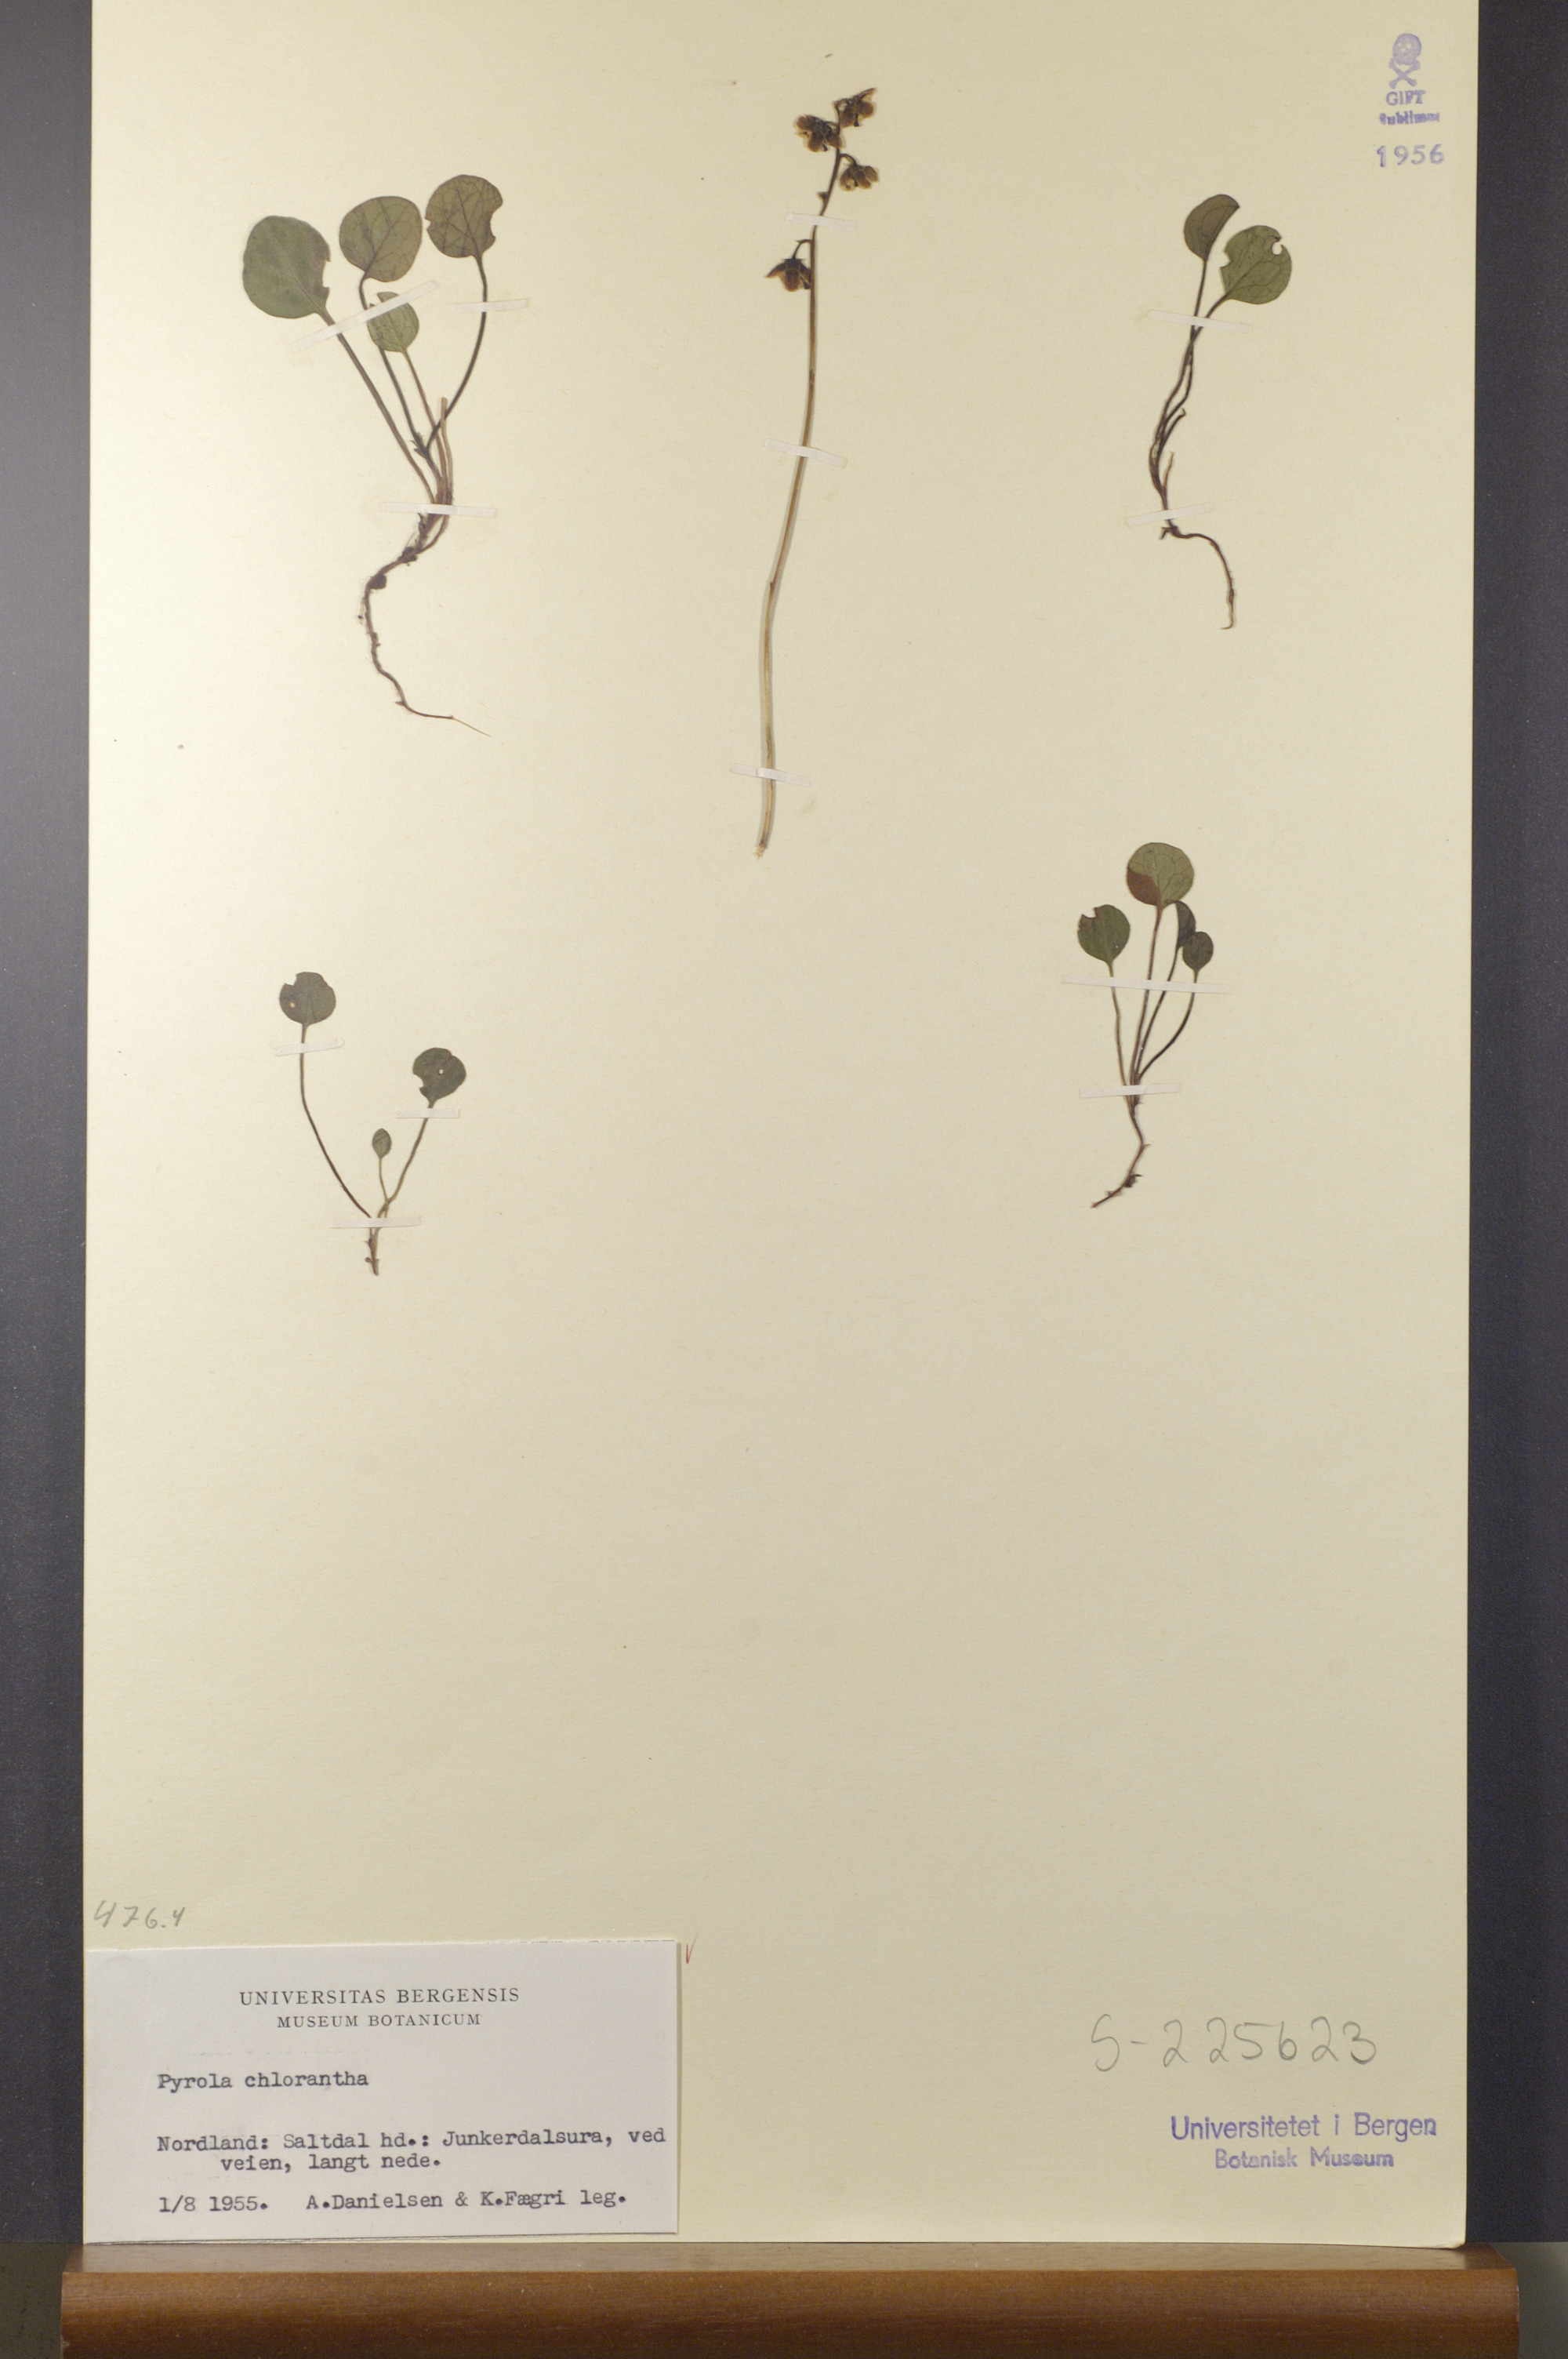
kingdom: Plantae
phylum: Tracheophyta
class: Magnoliopsida
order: Ericales
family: Ericaceae
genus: Pyrola
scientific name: Pyrola chlorantha
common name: Green wintergreen
